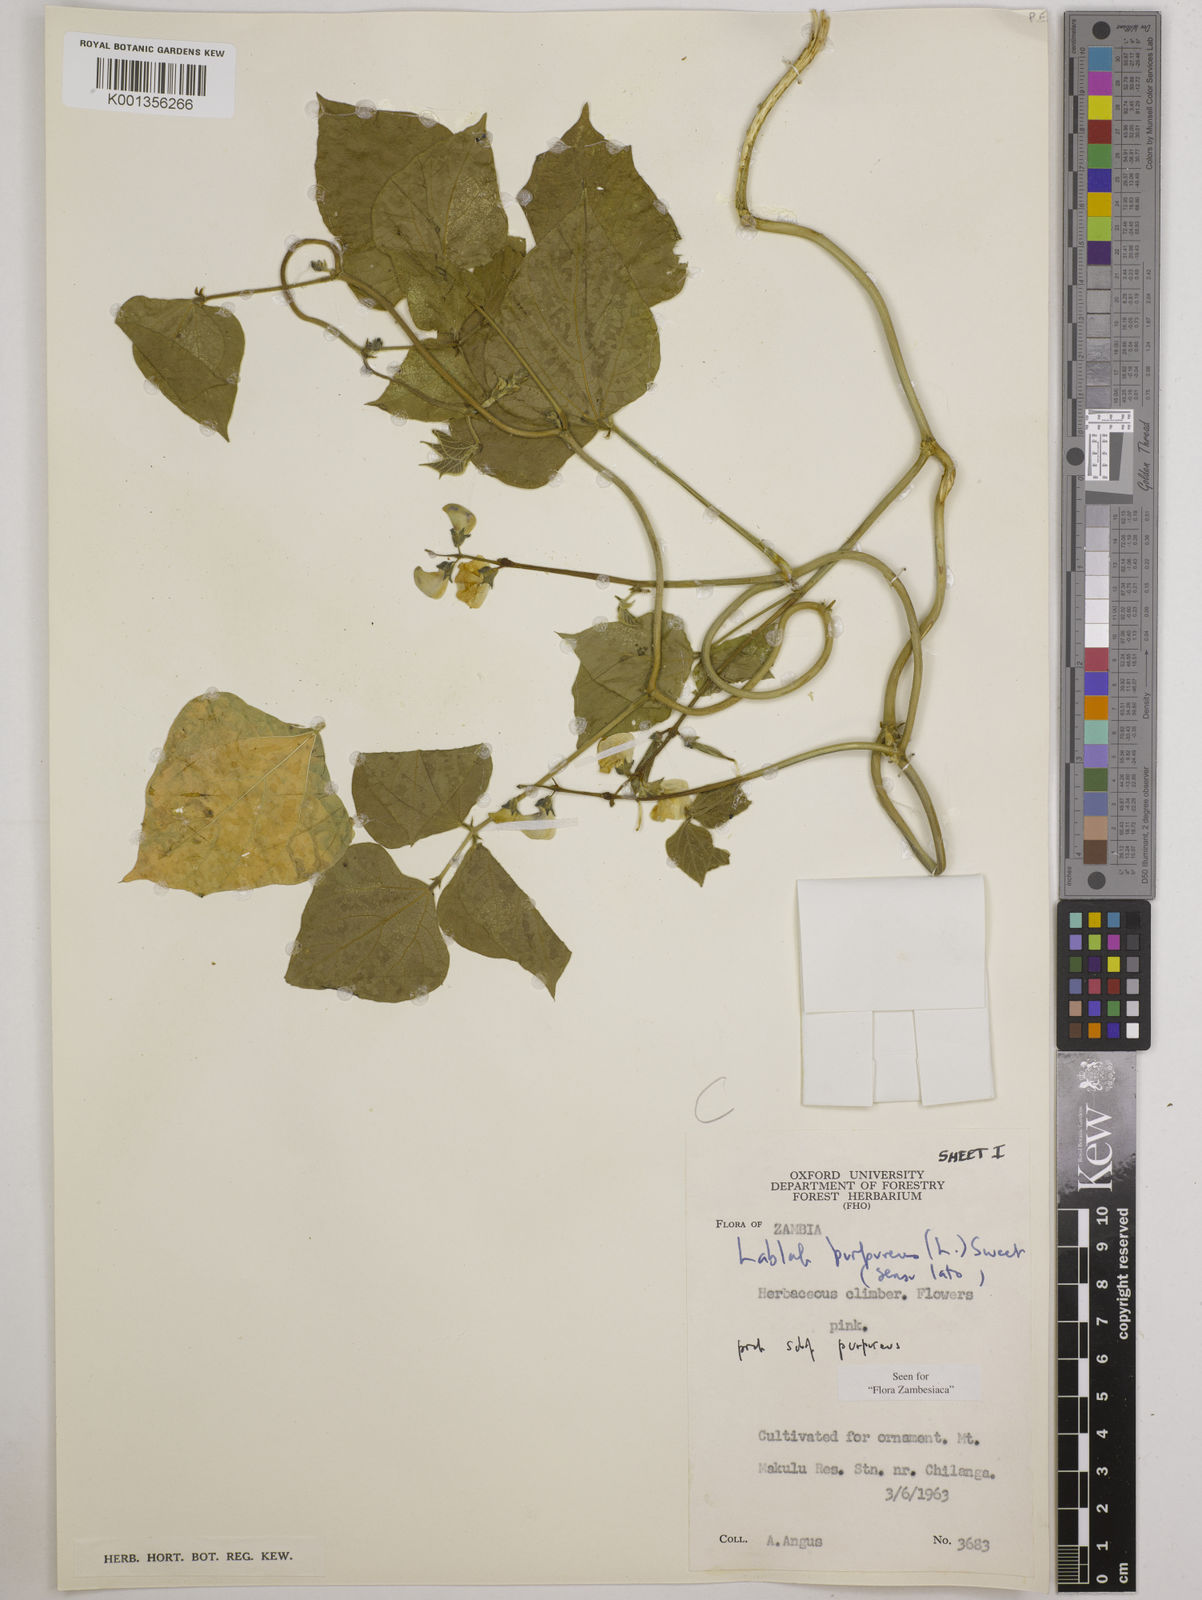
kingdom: Plantae
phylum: Tracheophyta
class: Magnoliopsida
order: Fabales
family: Fabaceae
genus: Lablab
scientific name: Lablab purpureus
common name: Lablab-bean
